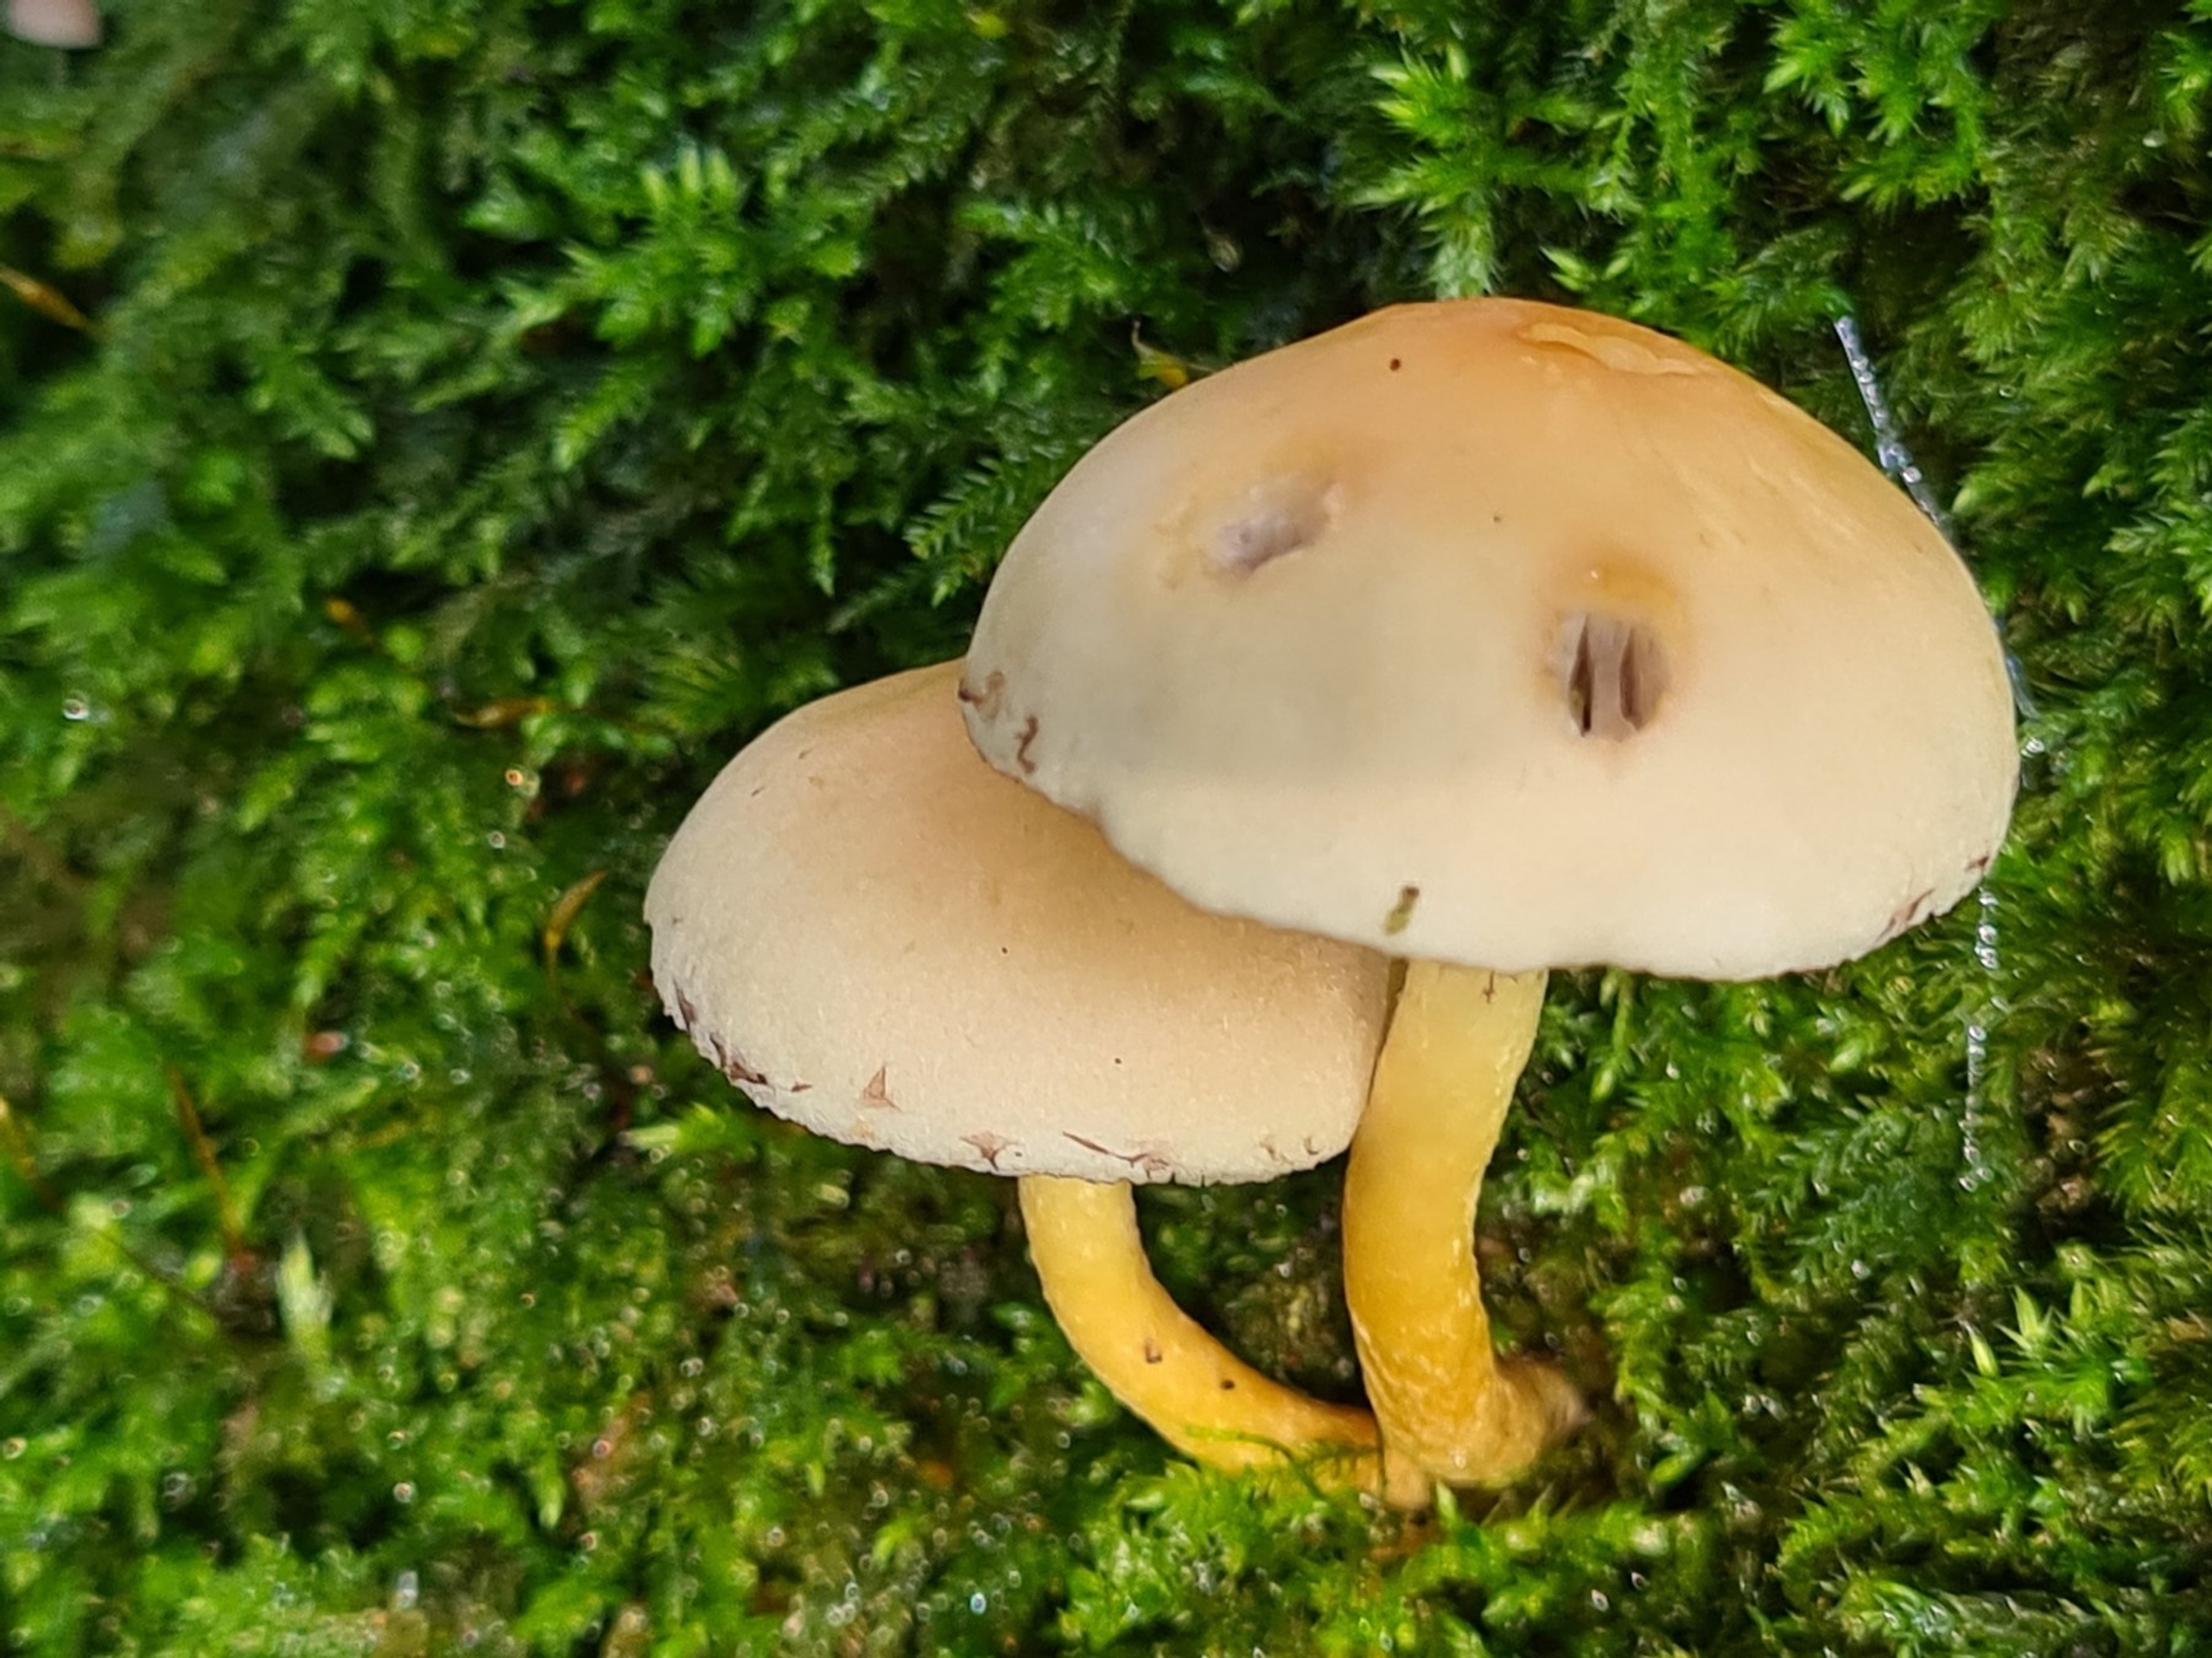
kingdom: Fungi
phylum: Basidiomycota
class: Agaricomycetes
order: Agaricales
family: Strophariaceae
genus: Hypholoma
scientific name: Hypholoma fasciculare
